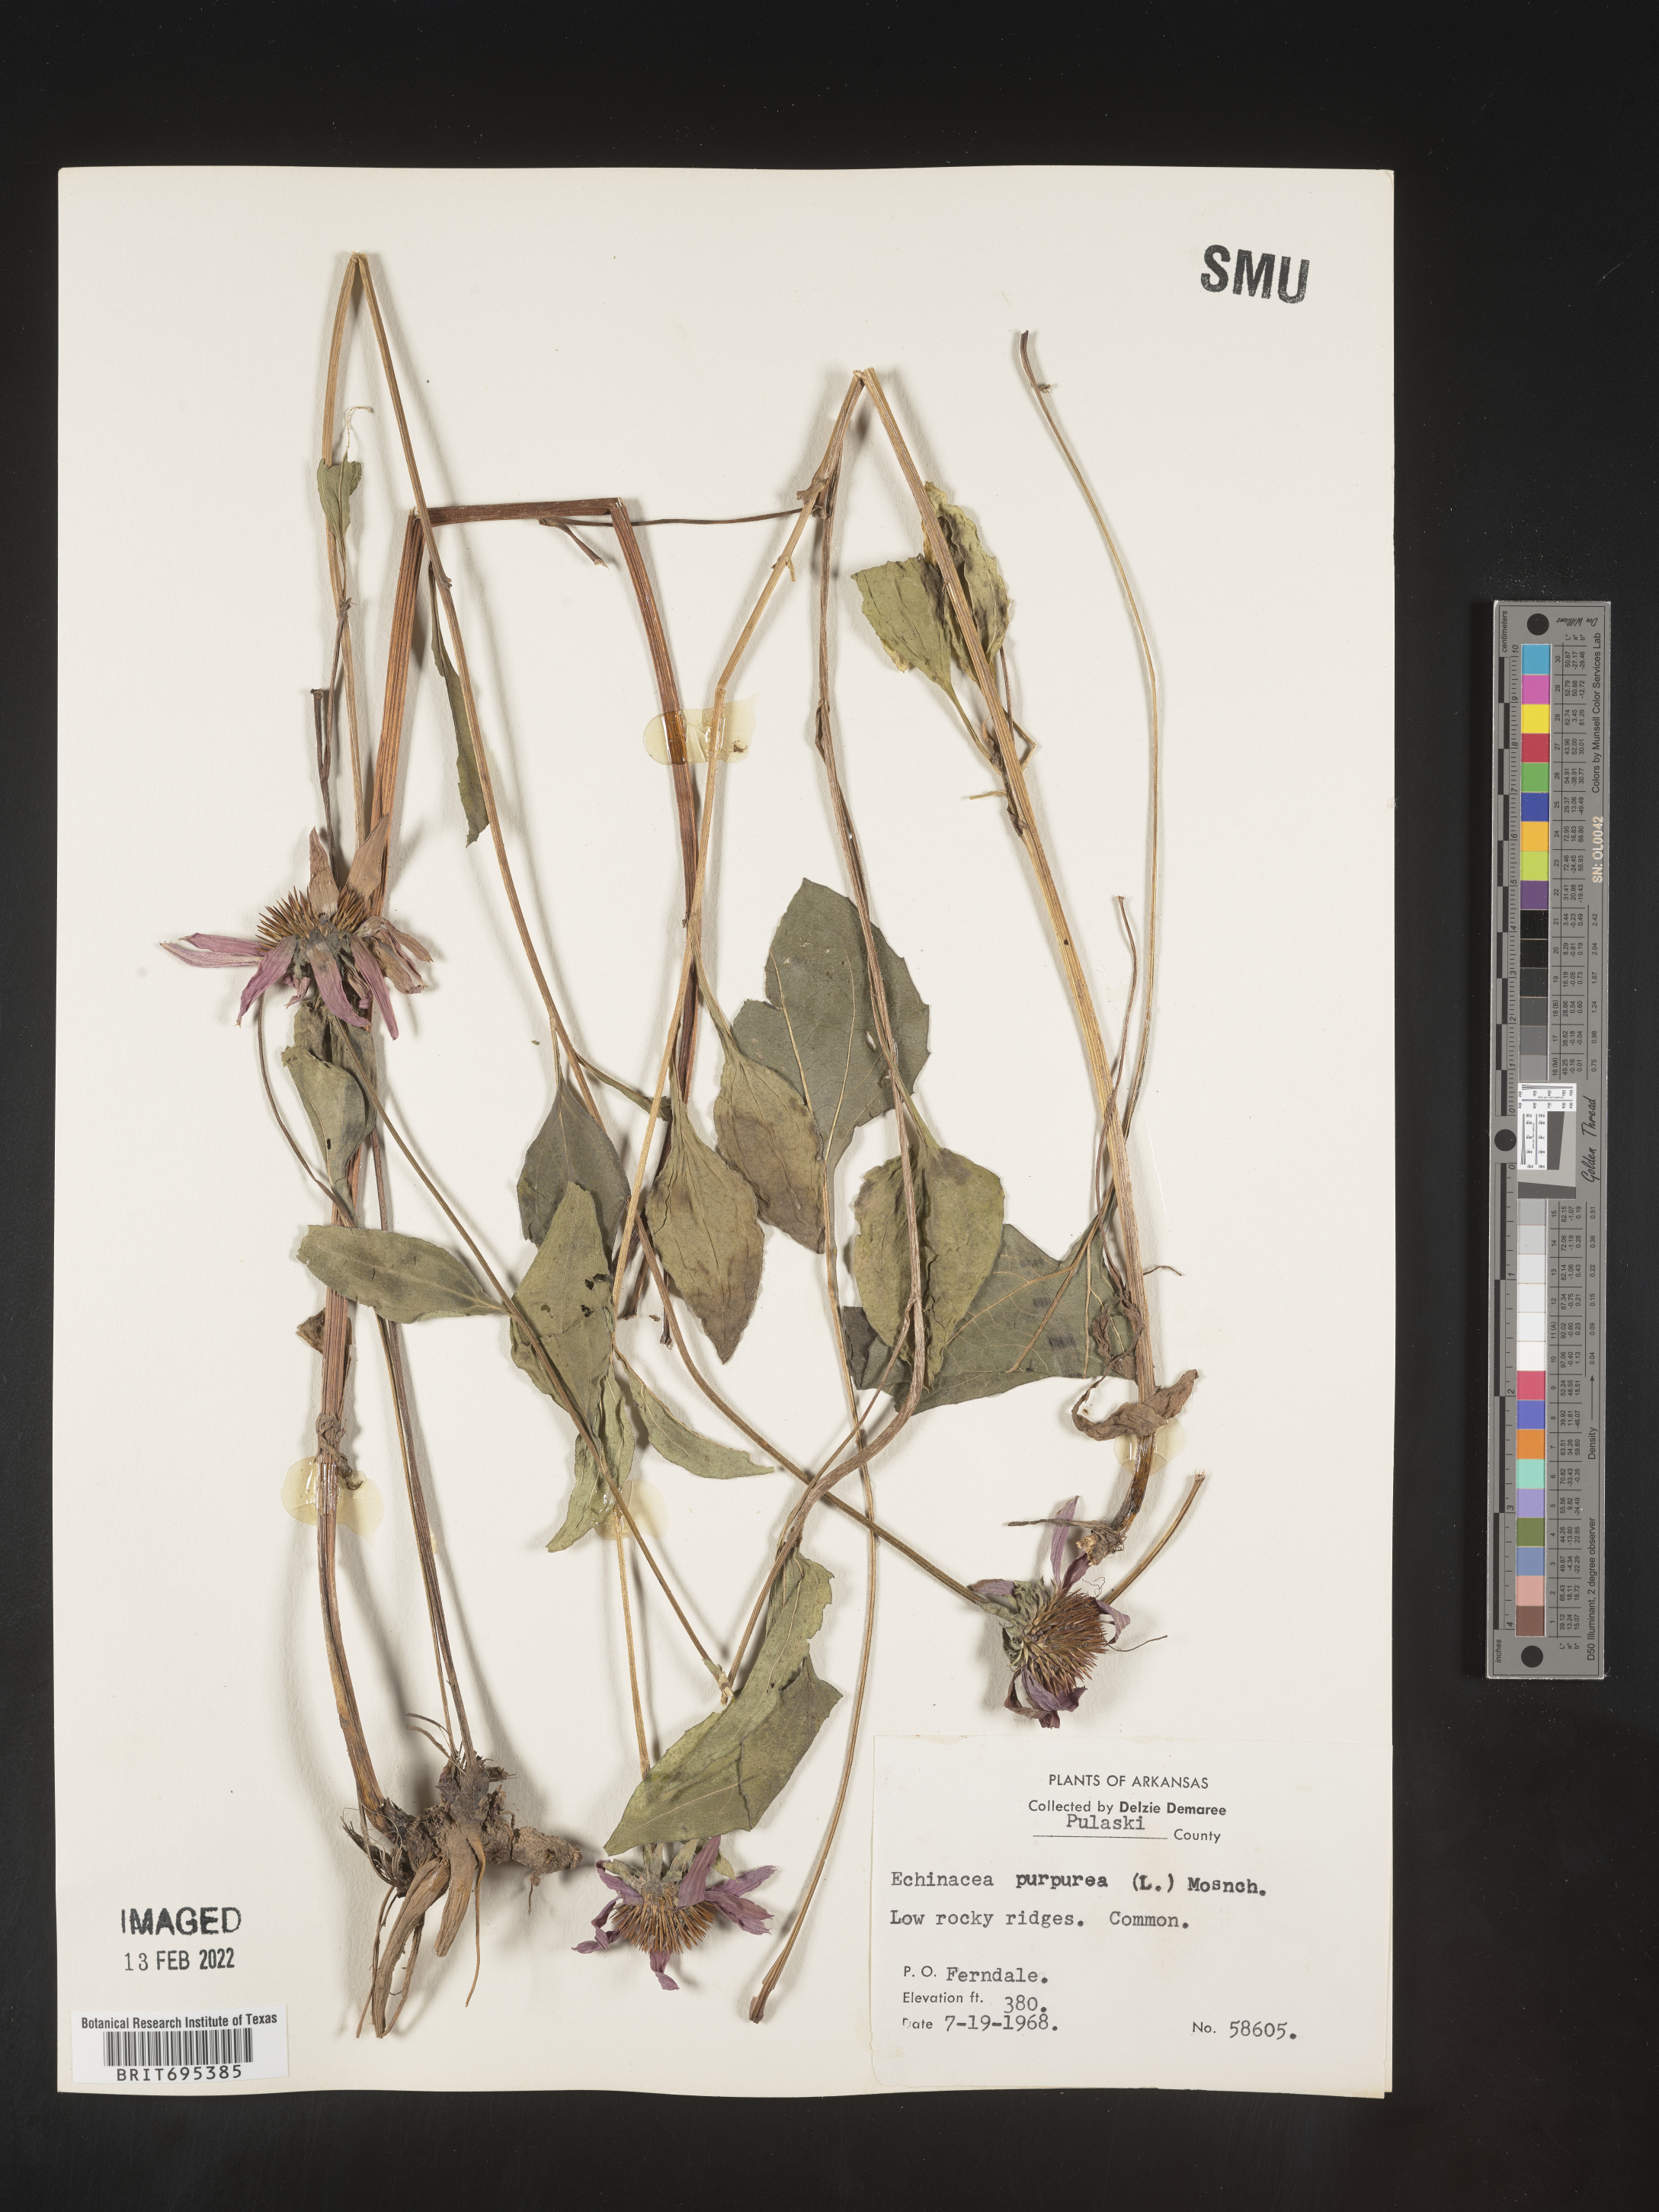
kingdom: Plantae
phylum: Tracheophyta
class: Magnoliopsida
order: Asterales
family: Asteraceae
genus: Echinacea
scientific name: Echinacea purpurea
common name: Broad-leaved purple coneflower
